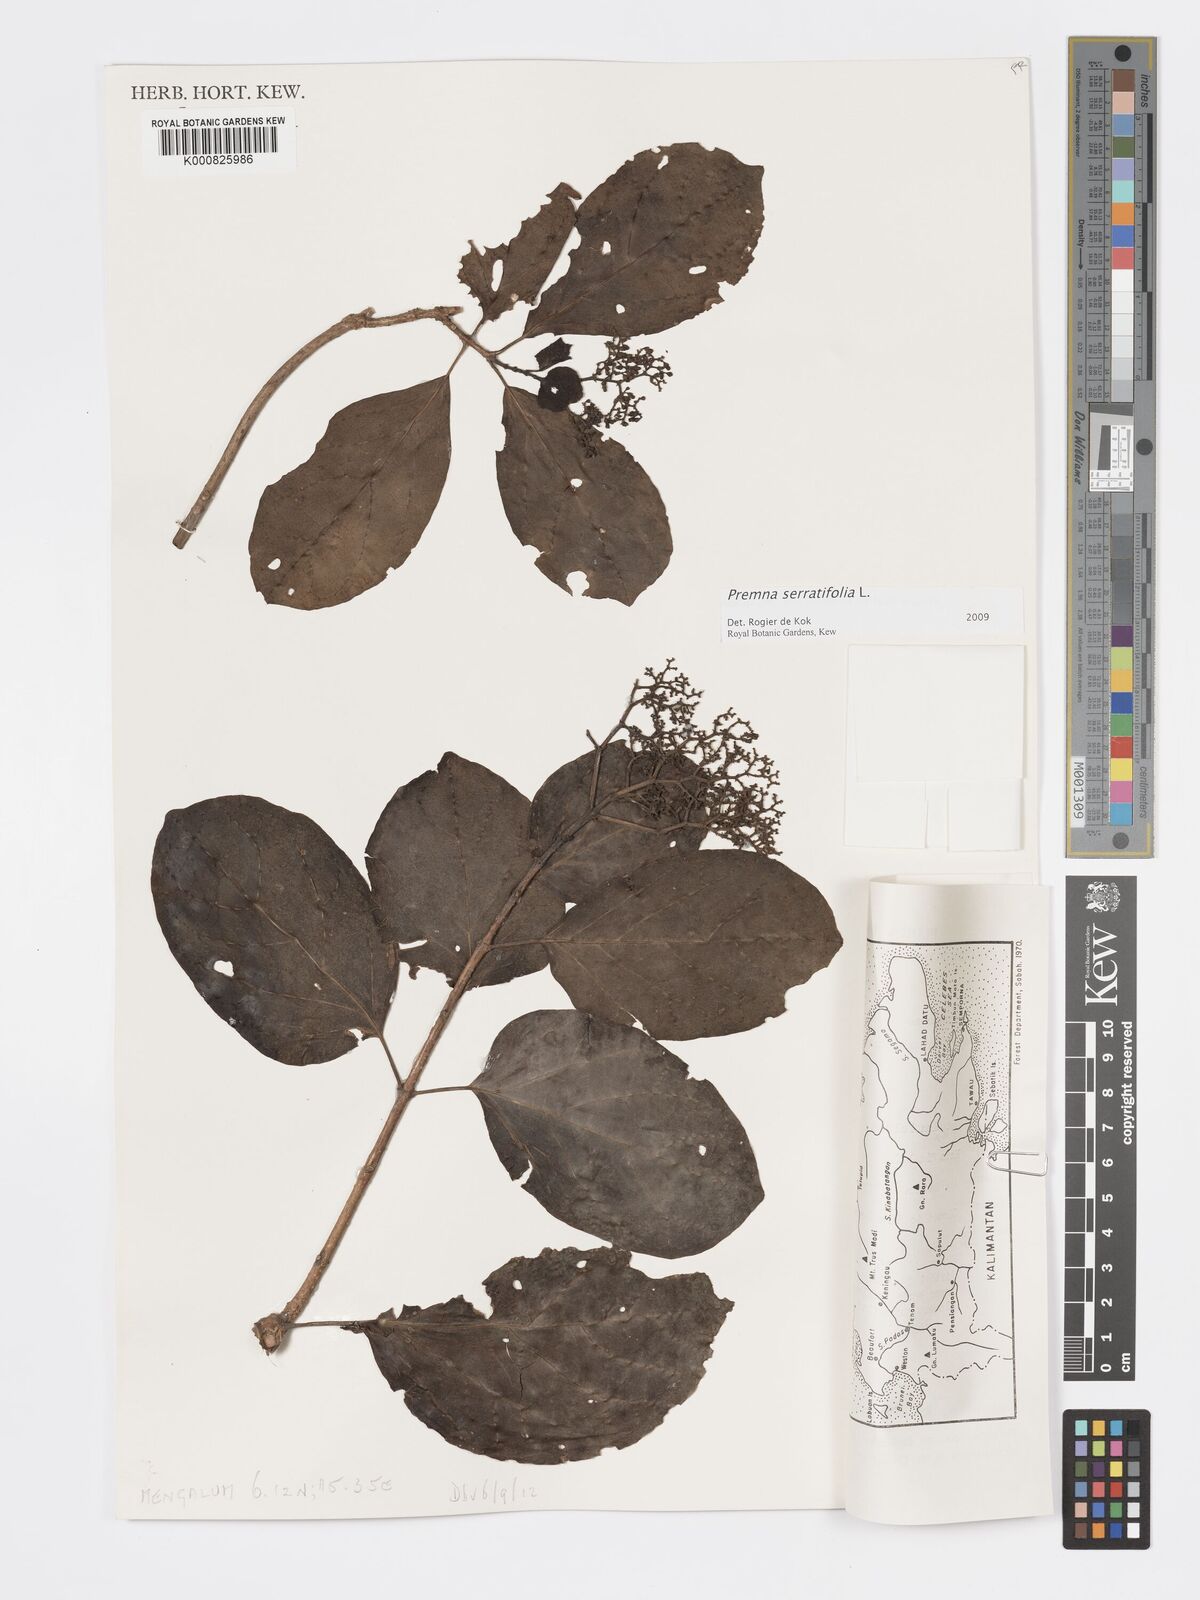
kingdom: Plantae
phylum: Tracheophyta
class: Magnoliopsida
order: Lamiales
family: Lamiaceae
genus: Premna
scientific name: Premna serratifolia
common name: Bastard guelder
